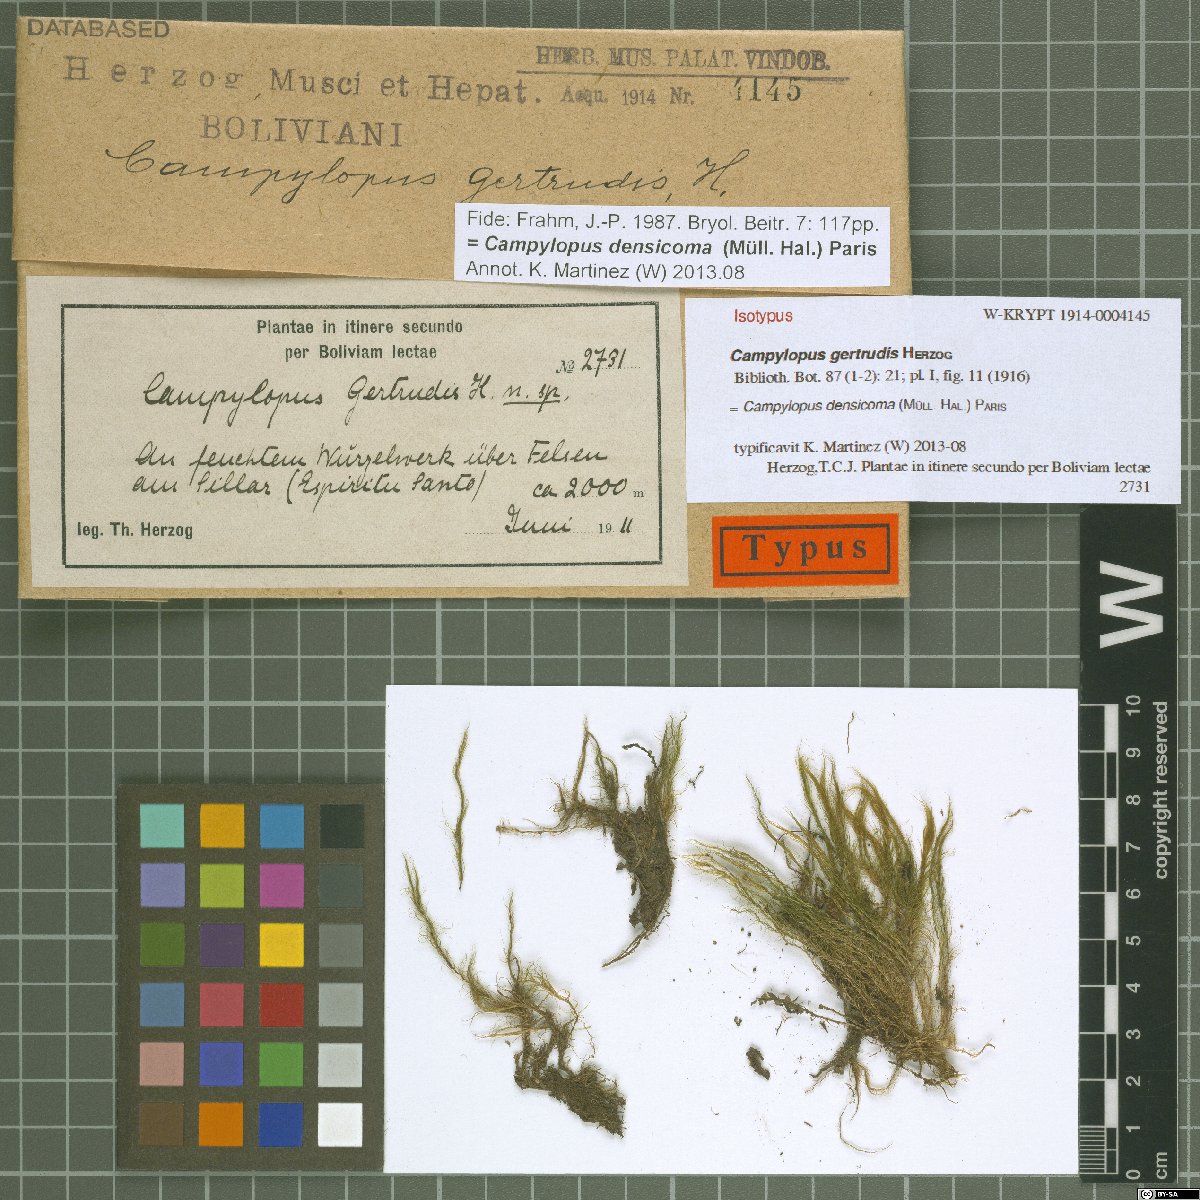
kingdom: Plantae
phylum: Bryophyta
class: Bryopsida
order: Dicranales
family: Leucobryaceae
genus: Campylopus
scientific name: Campylopus densicoma
